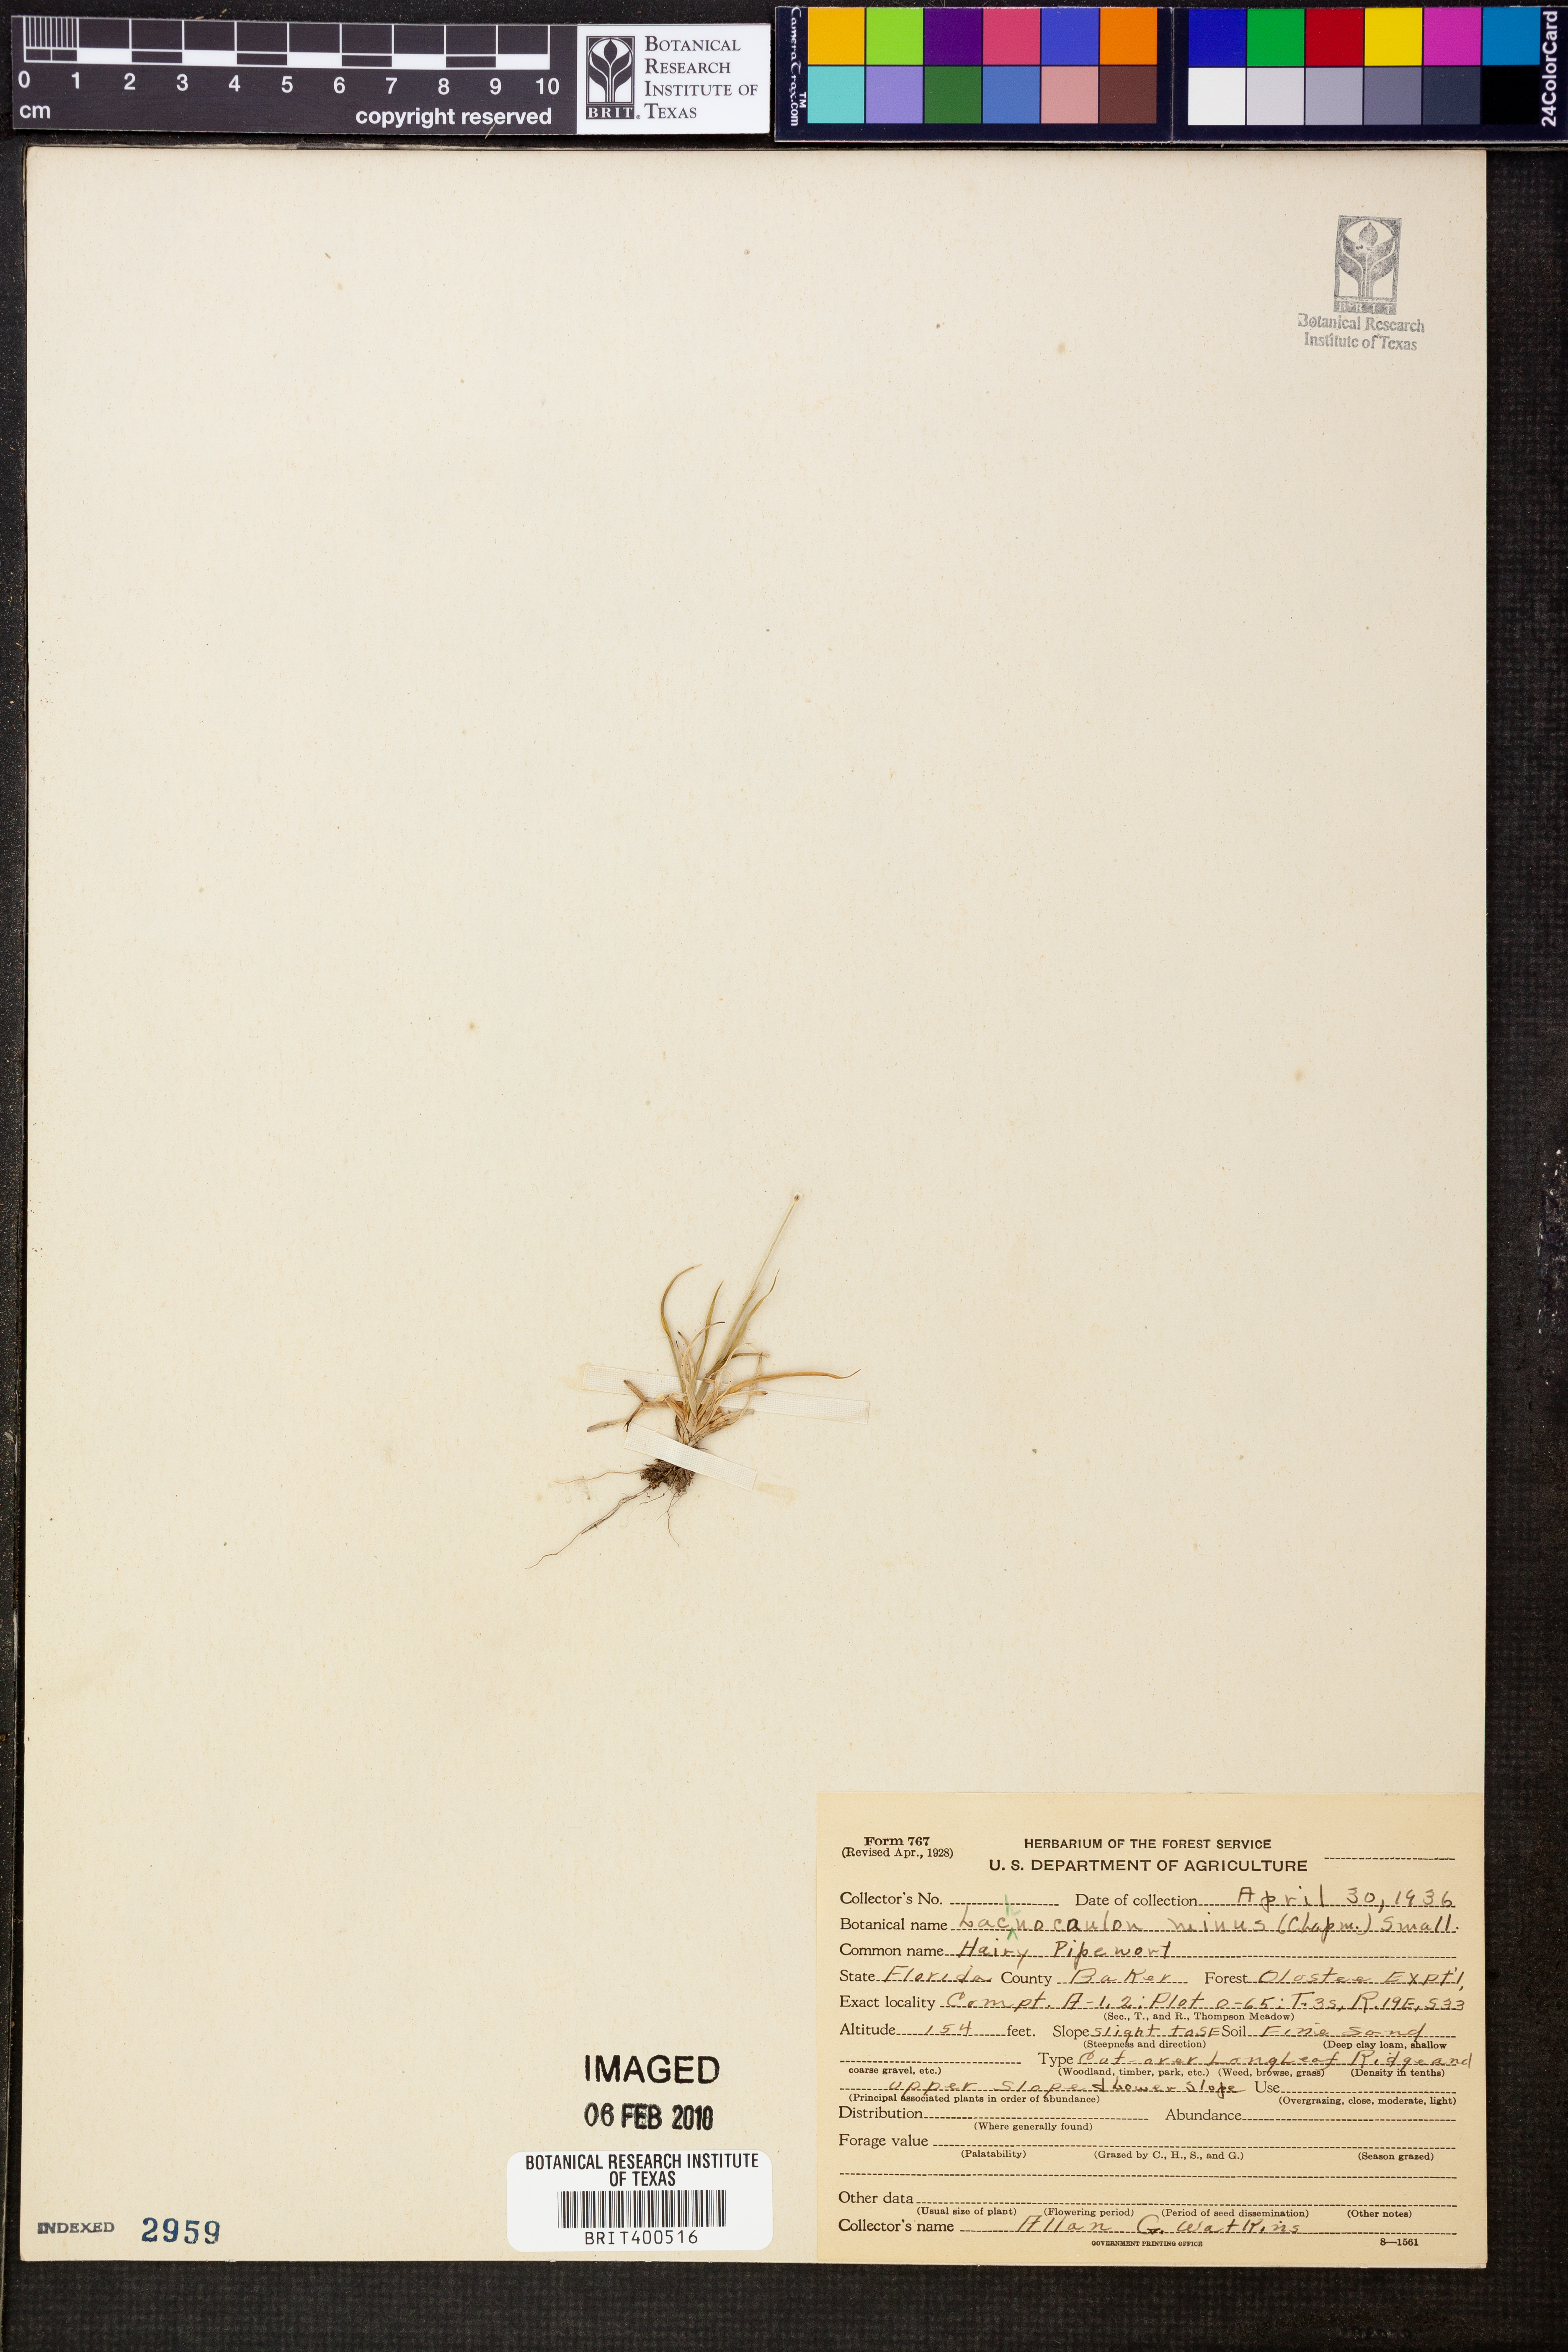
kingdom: Plantae
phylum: Tracheophyta
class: Liliopsida
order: Poales
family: Eriocaulaceae
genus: Paepalanthus
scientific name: Paepalanthus minus
